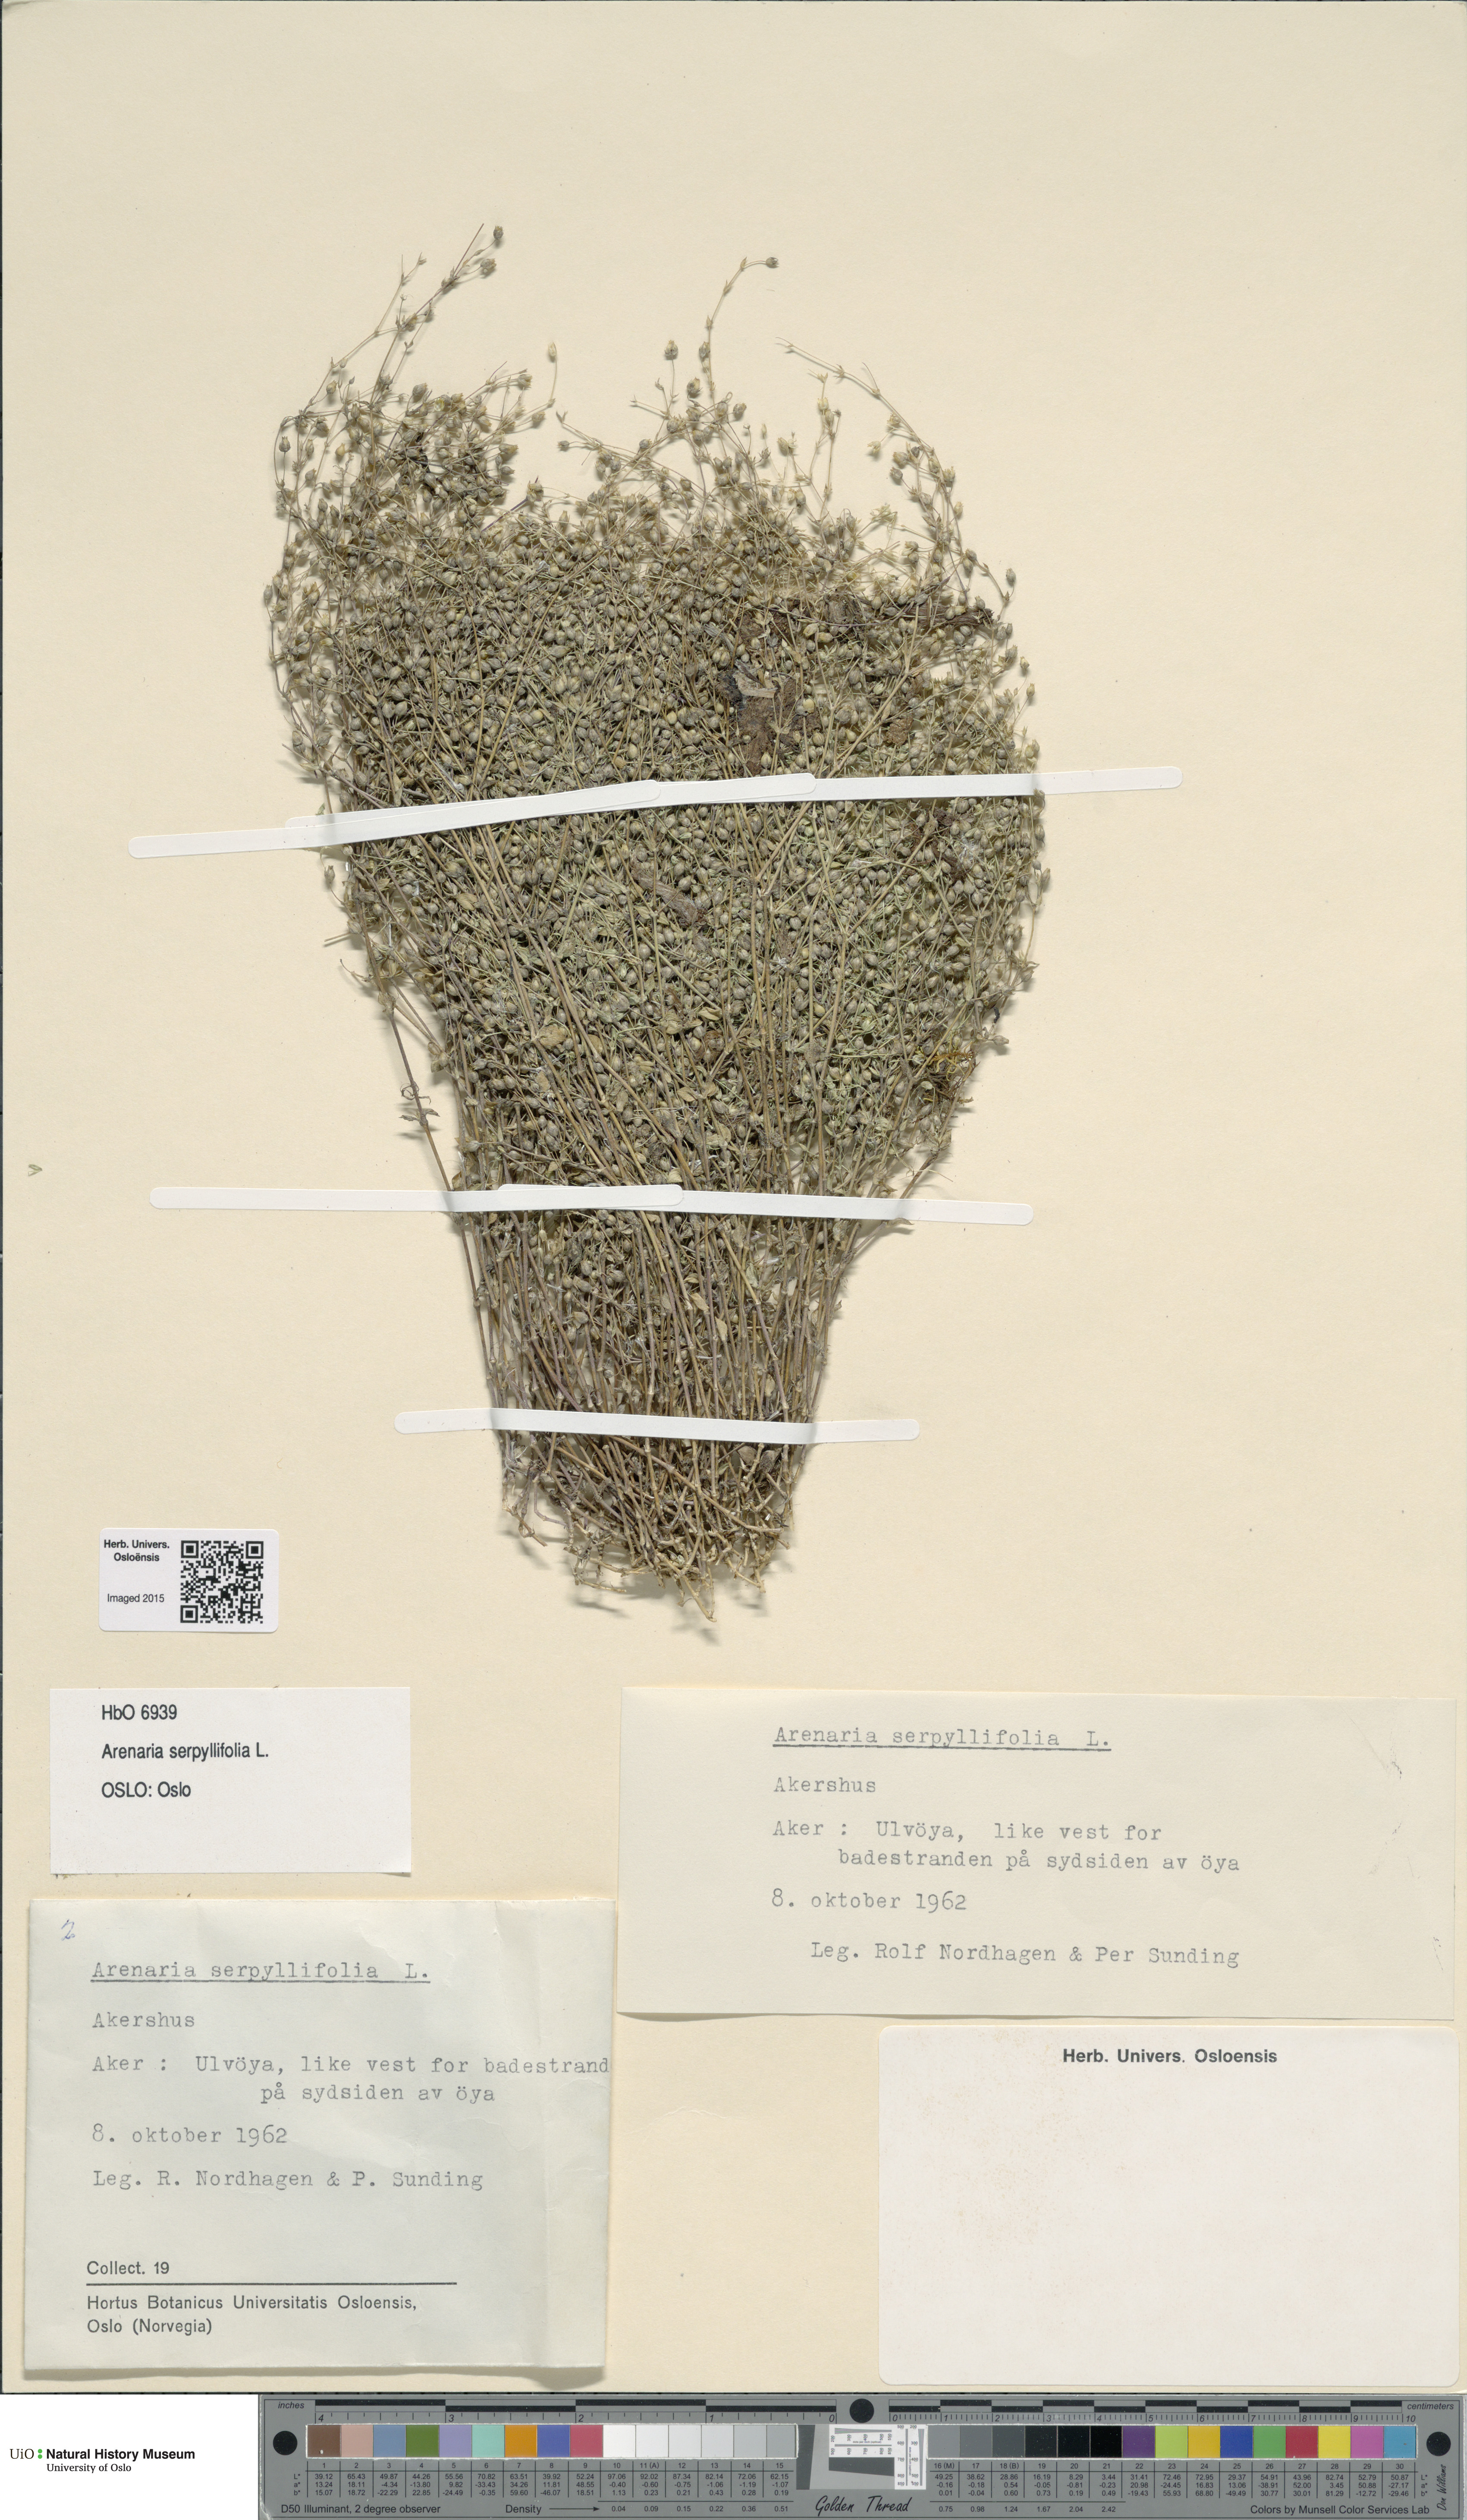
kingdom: Plantae
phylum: Tracheophyta
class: Magnoliopsida
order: Caryophyllales
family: Caryophyllaceae
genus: Arenaria
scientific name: Arenaria serpyllifolia
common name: Thyme-leaved sandwort
